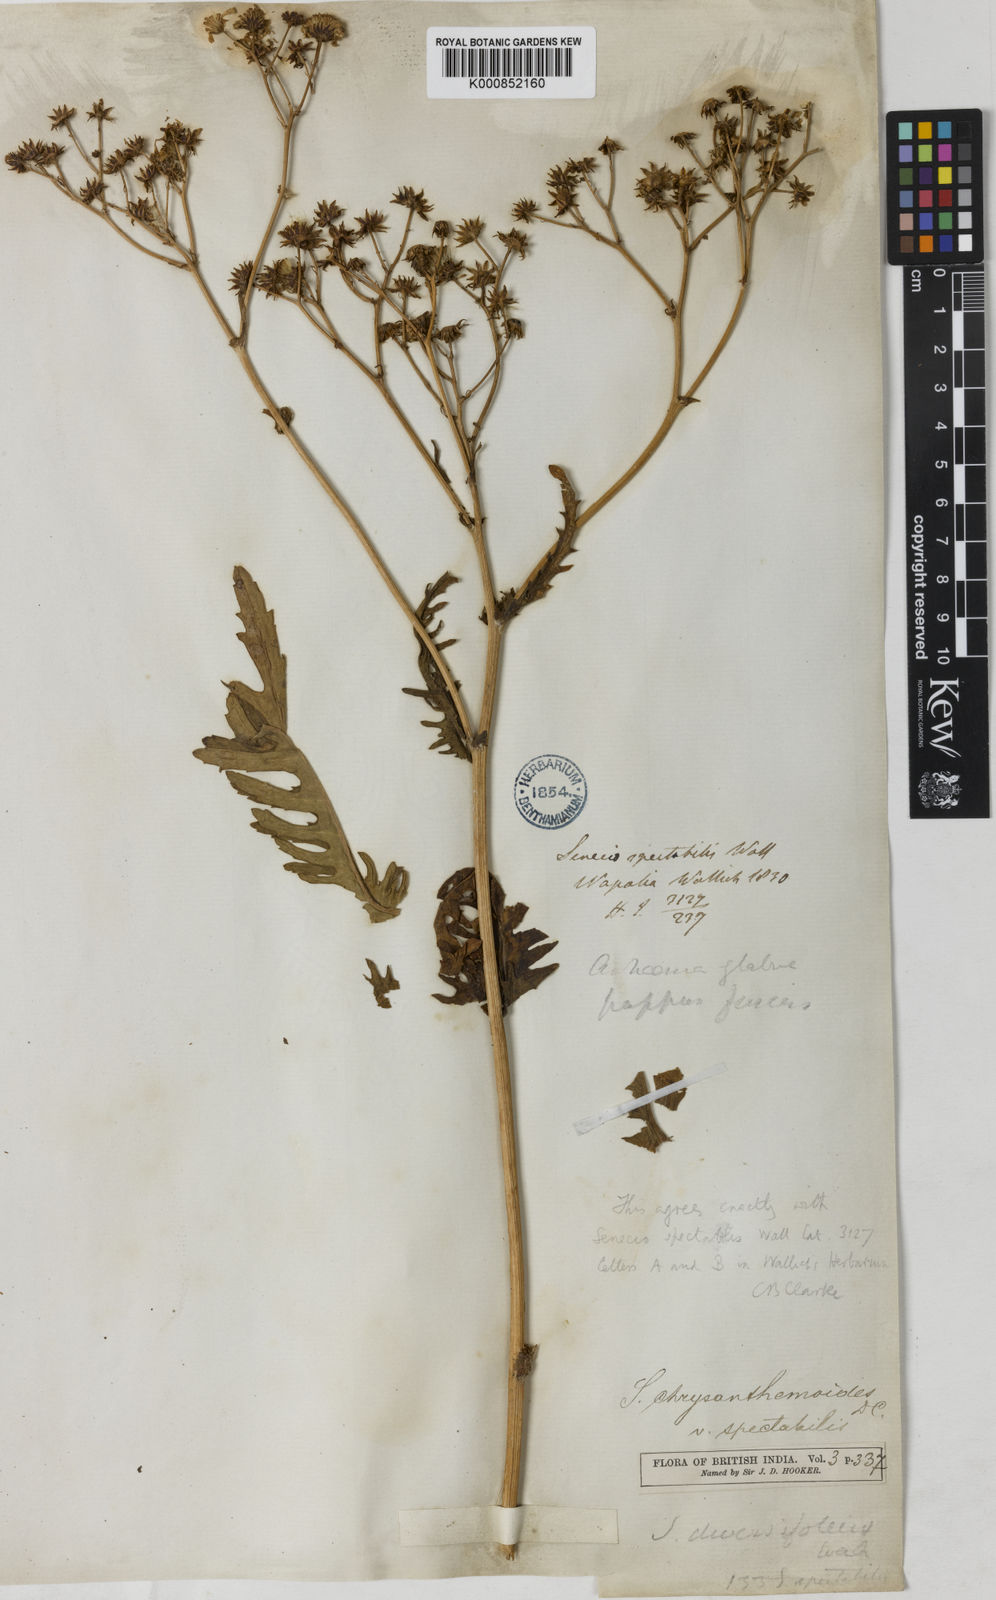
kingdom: Plantae
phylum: Tracheophyta
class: Magnoliopsida
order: Asterales
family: Asteraceae
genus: Jacobaea
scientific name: Jacobaea analoga
